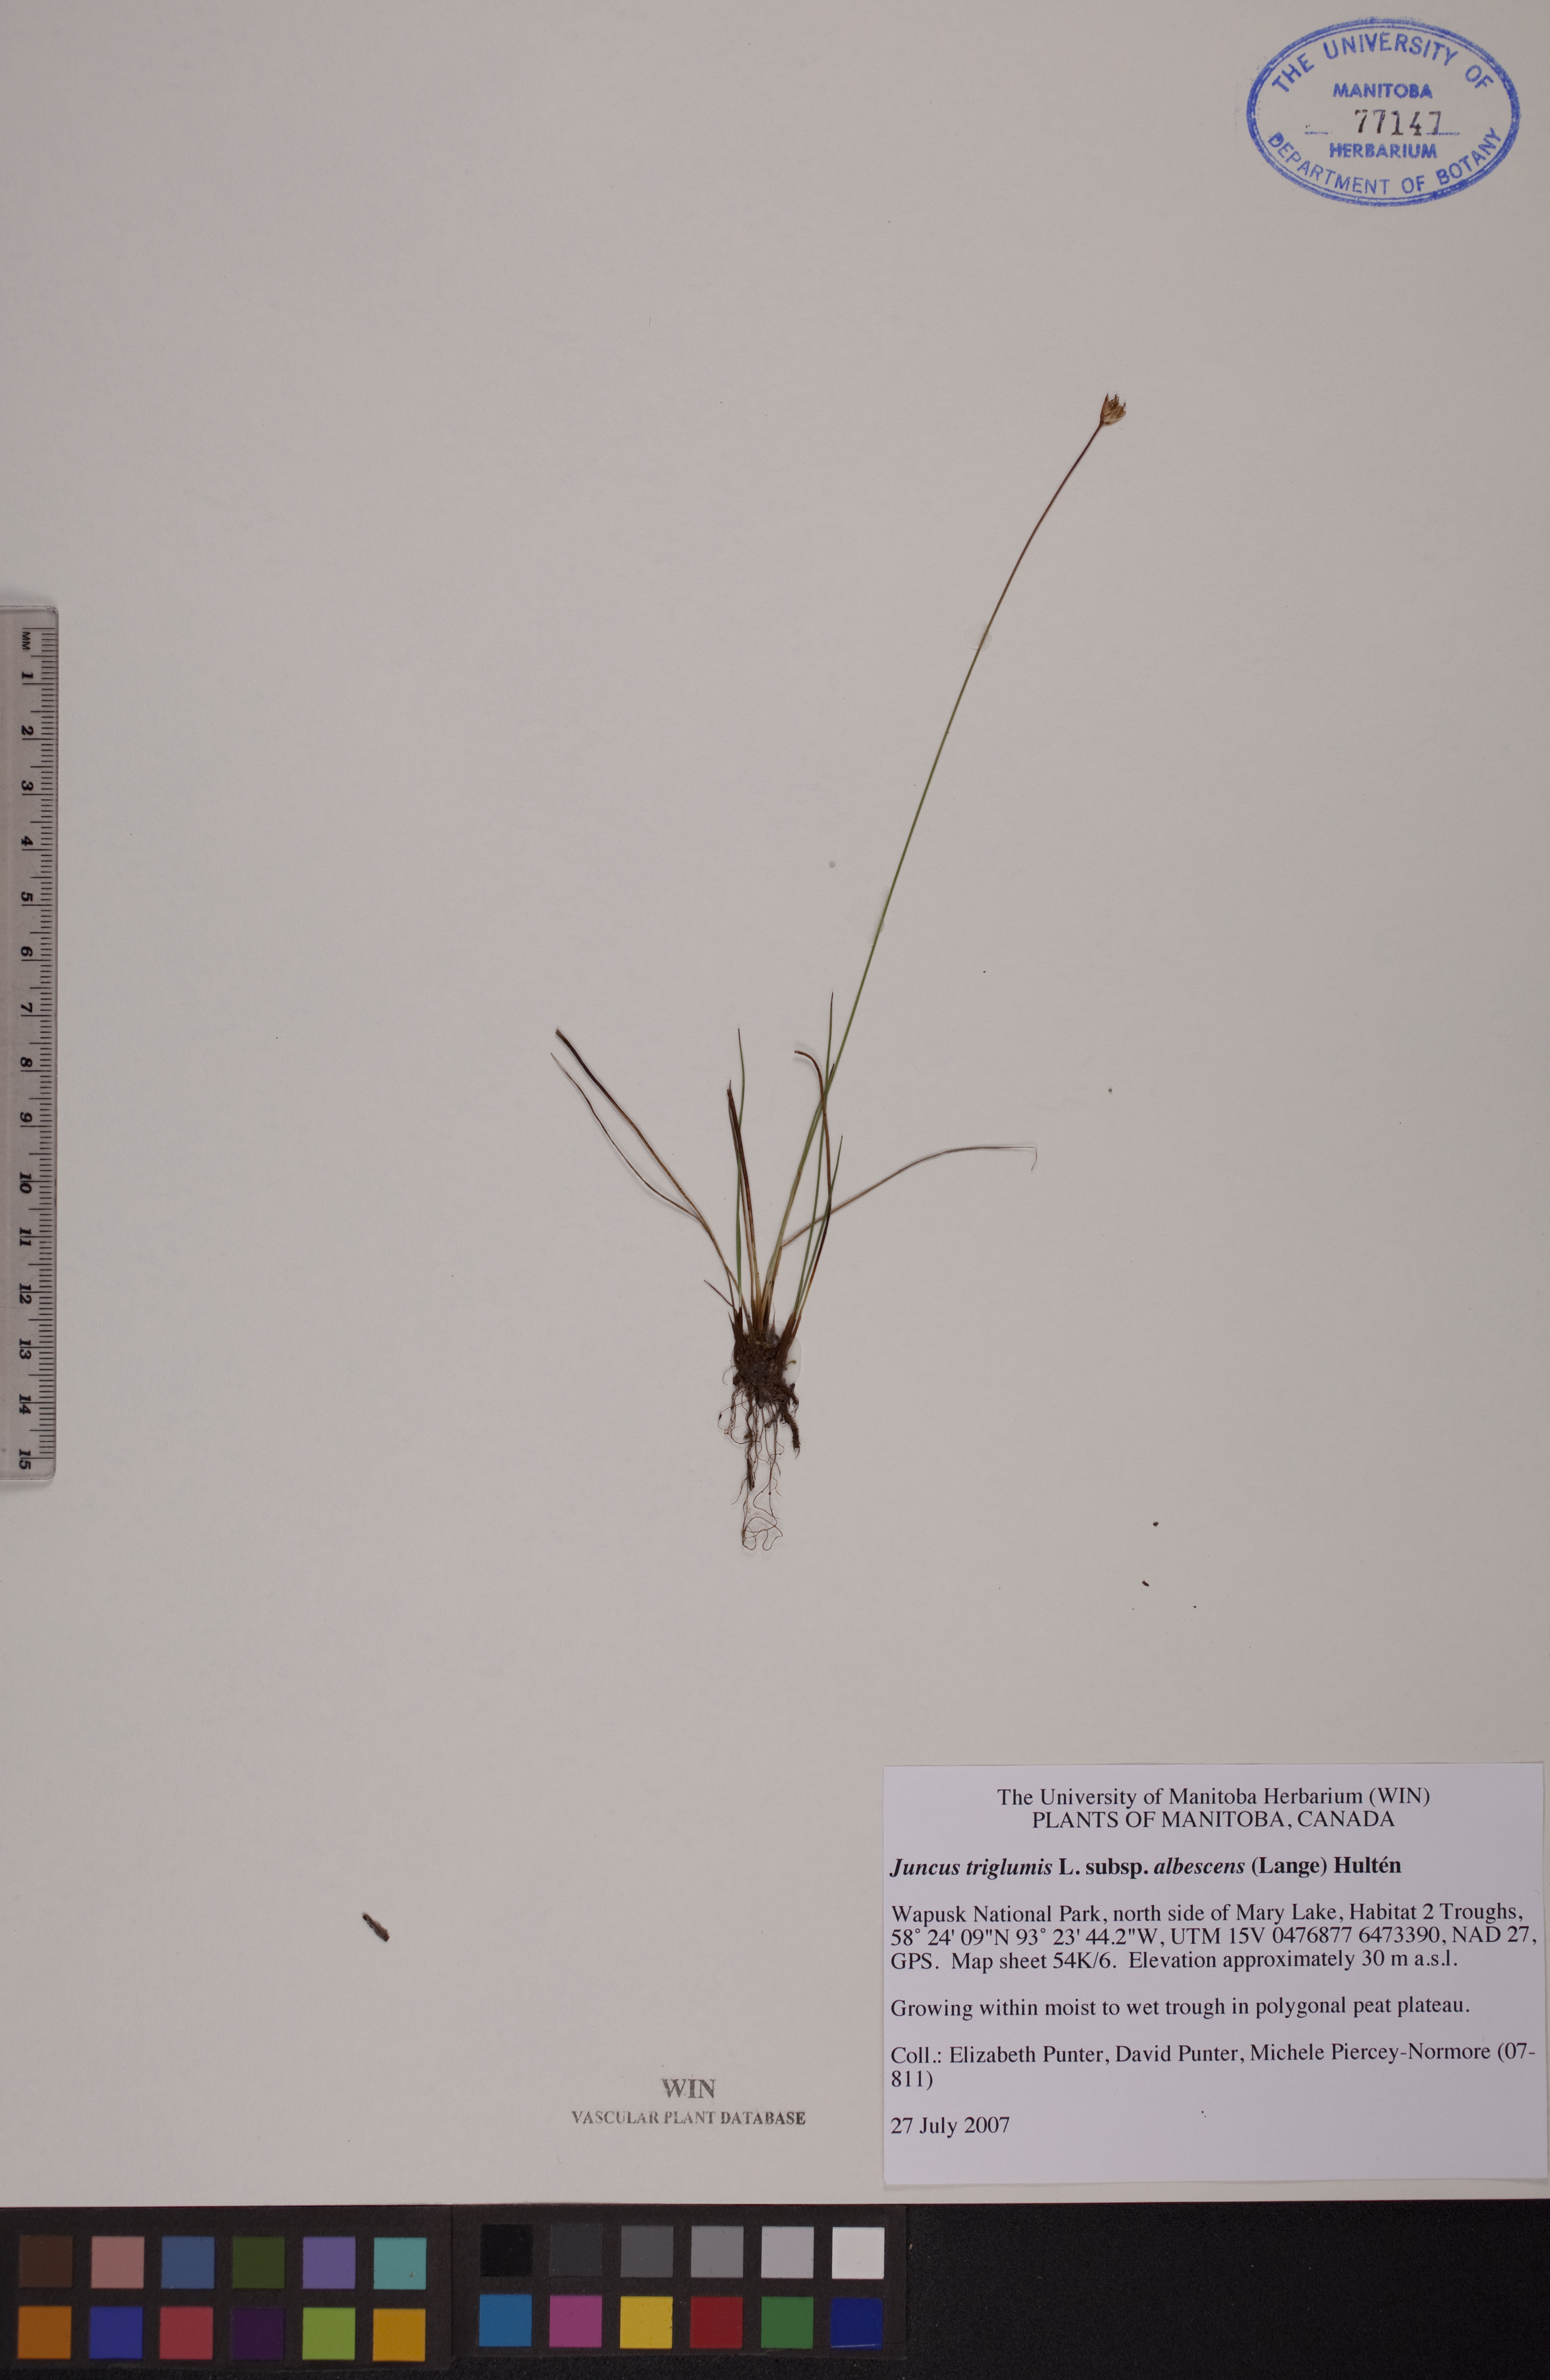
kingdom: Plantae
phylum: Tracheophyta
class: Liliopsida
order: Poales
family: Juncaceae
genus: Juncus
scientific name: Juncus albescens
